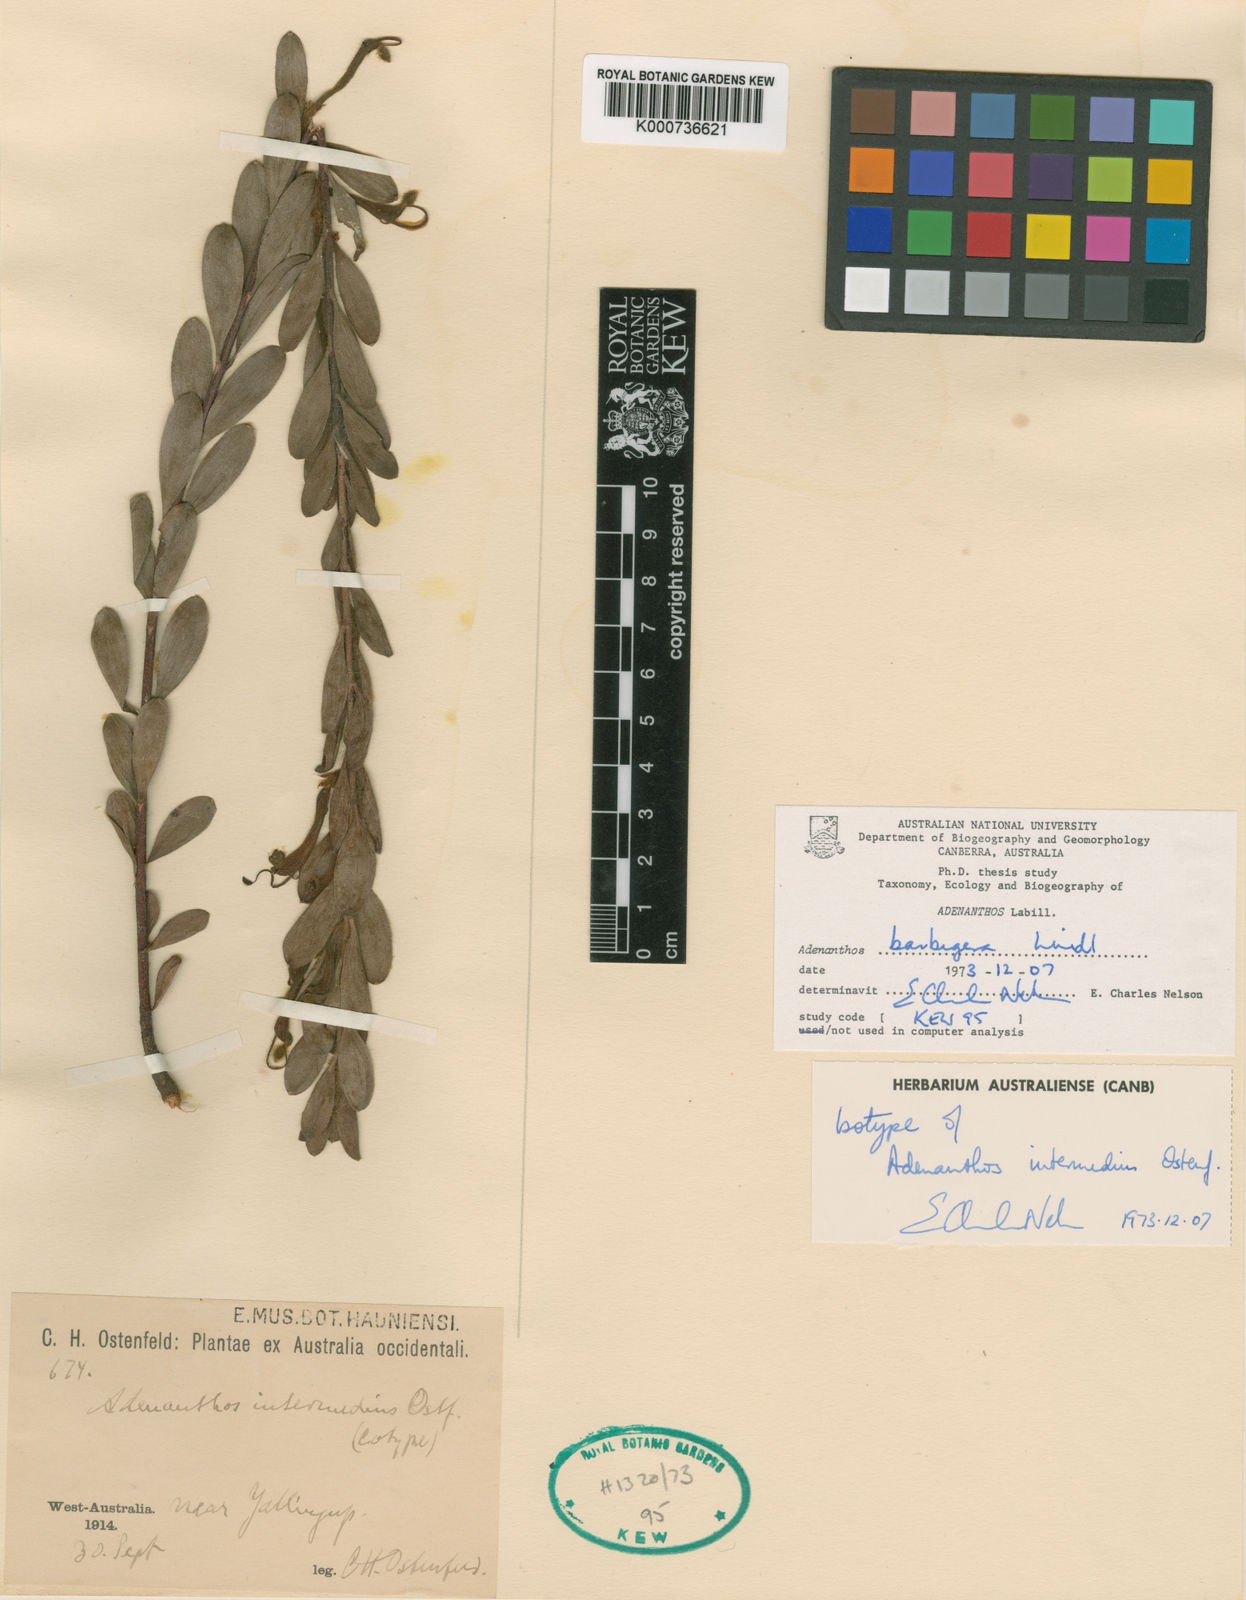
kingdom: Plantae
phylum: Tracheophyta
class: Magnoliopsida
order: Proteales
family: Proteaceae
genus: Adenanthos
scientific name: Adenanthos barbiger
